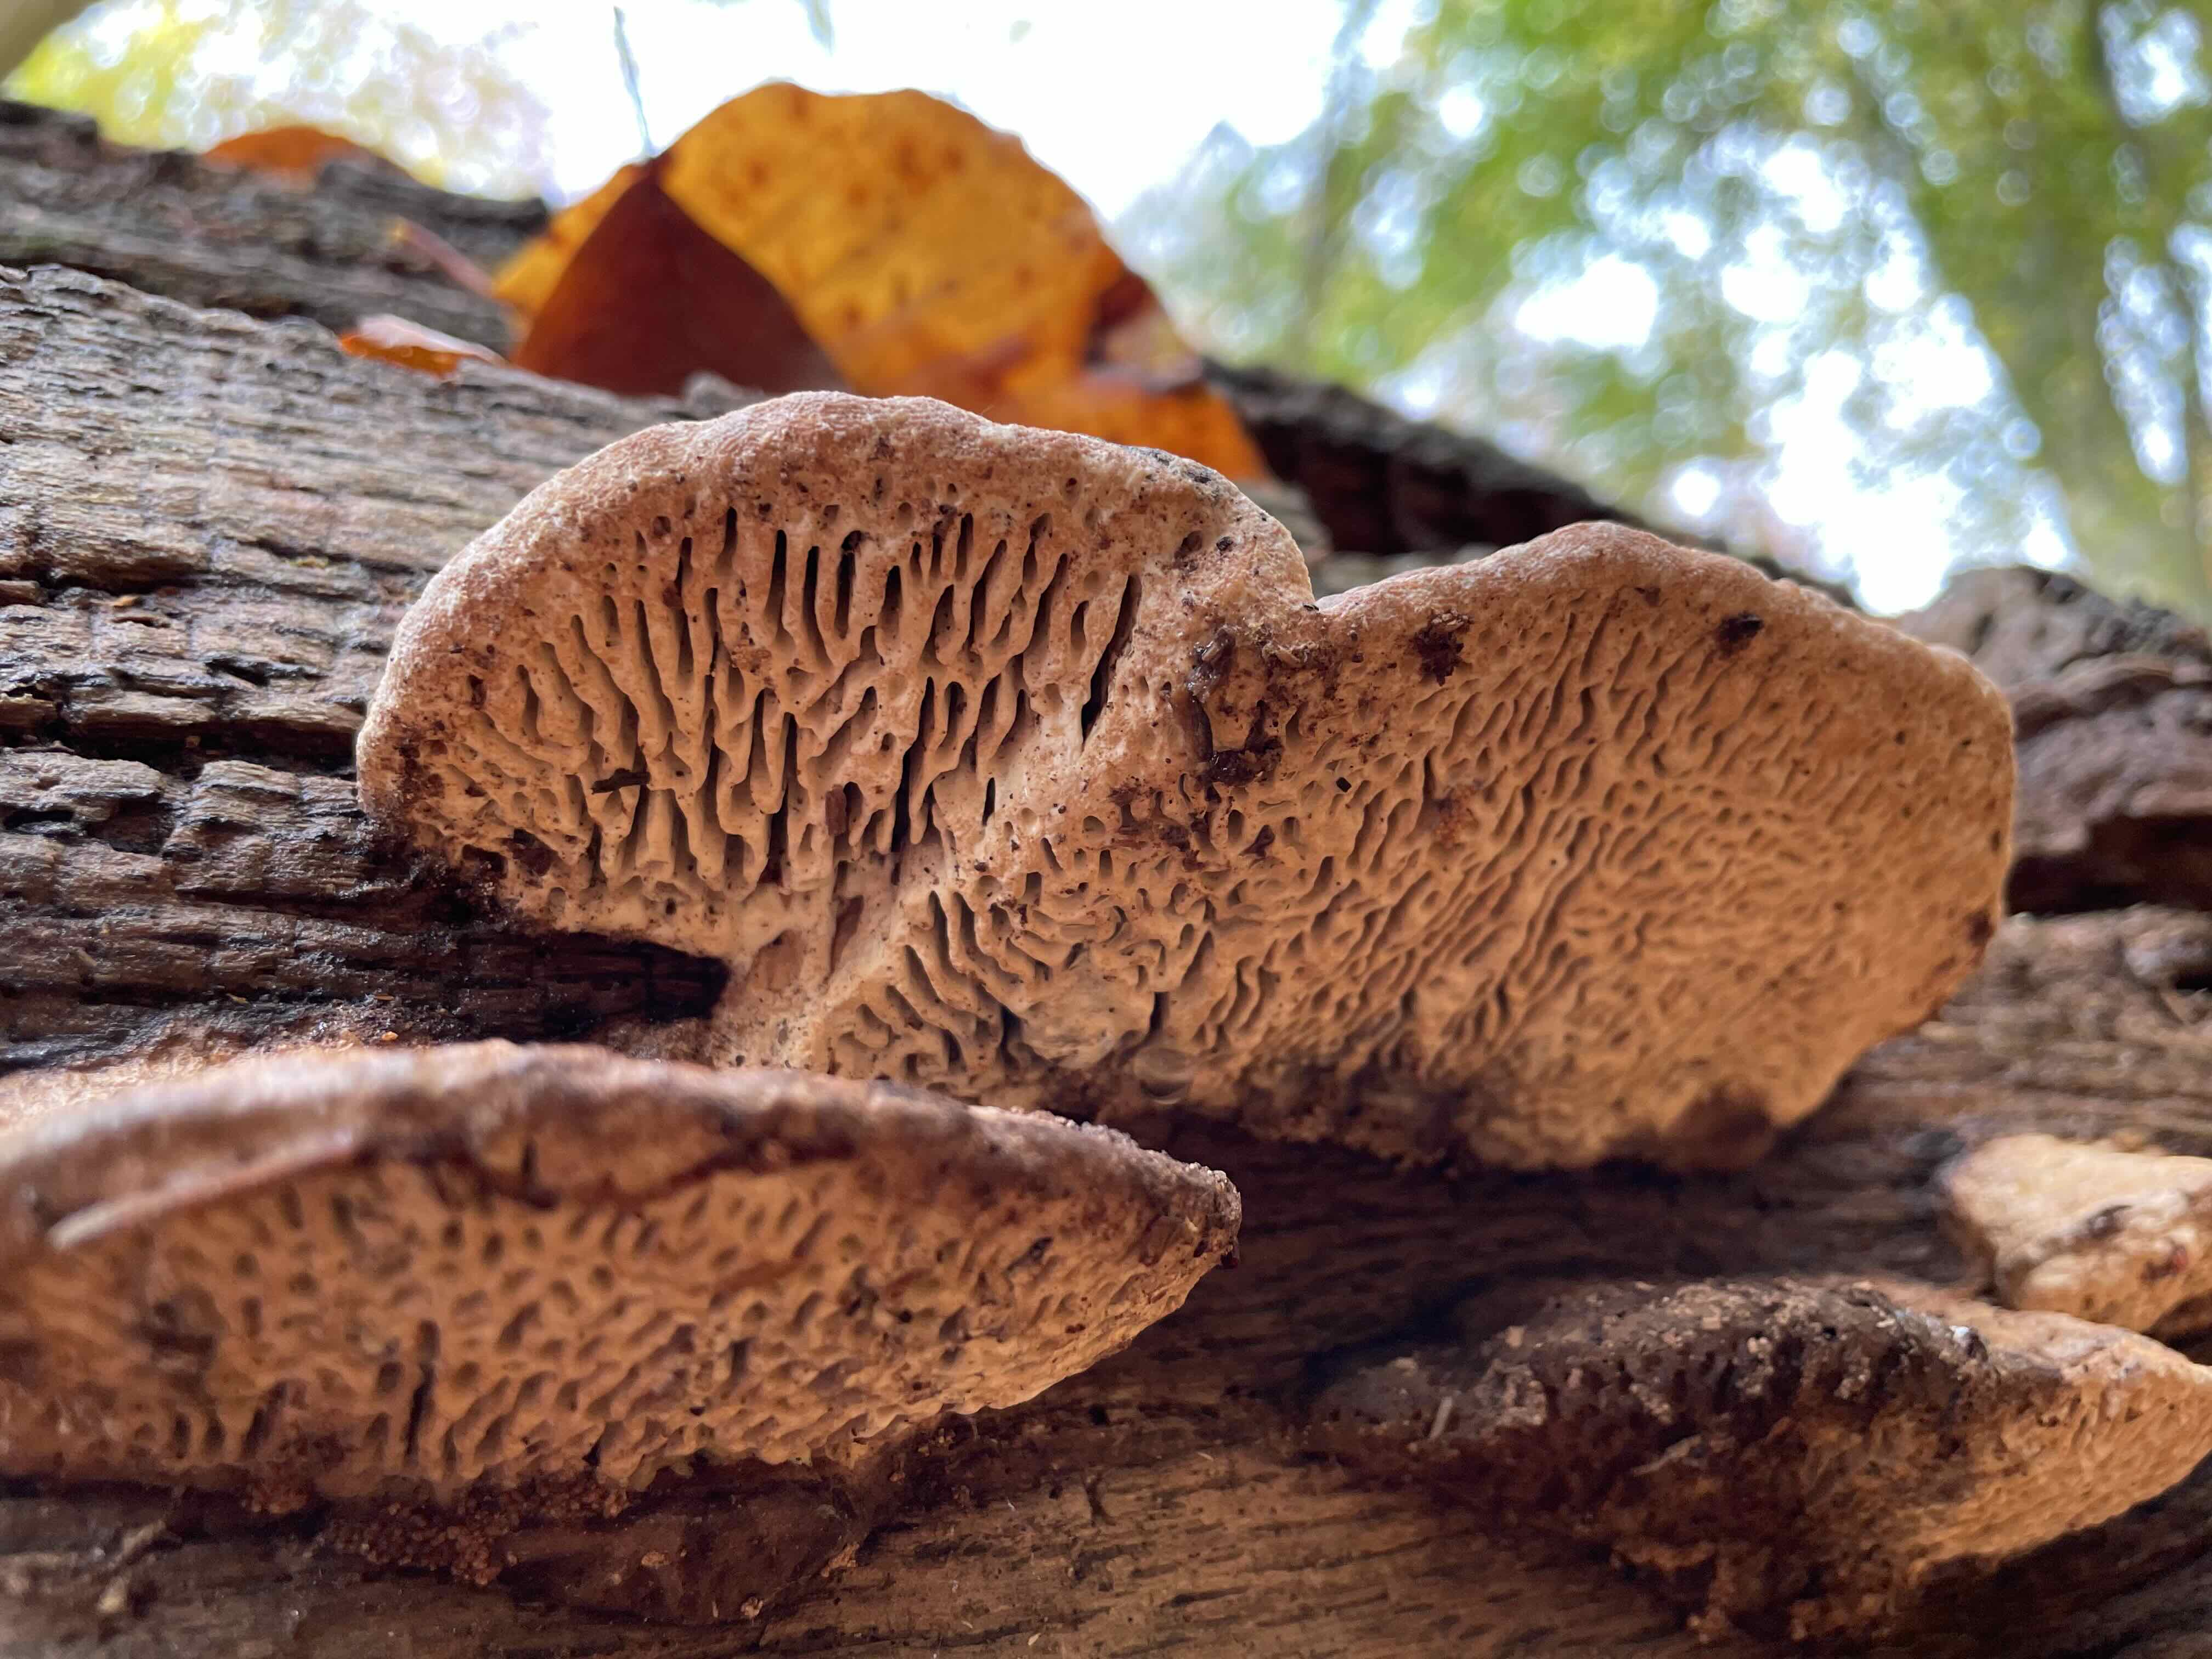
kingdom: Fungi
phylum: Basidiomycota
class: Agaricomycetes
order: Polyporales
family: Fomitopsidaceae
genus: Daedalea
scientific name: Daedalea quercina
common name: ege-labyrintsvamp
